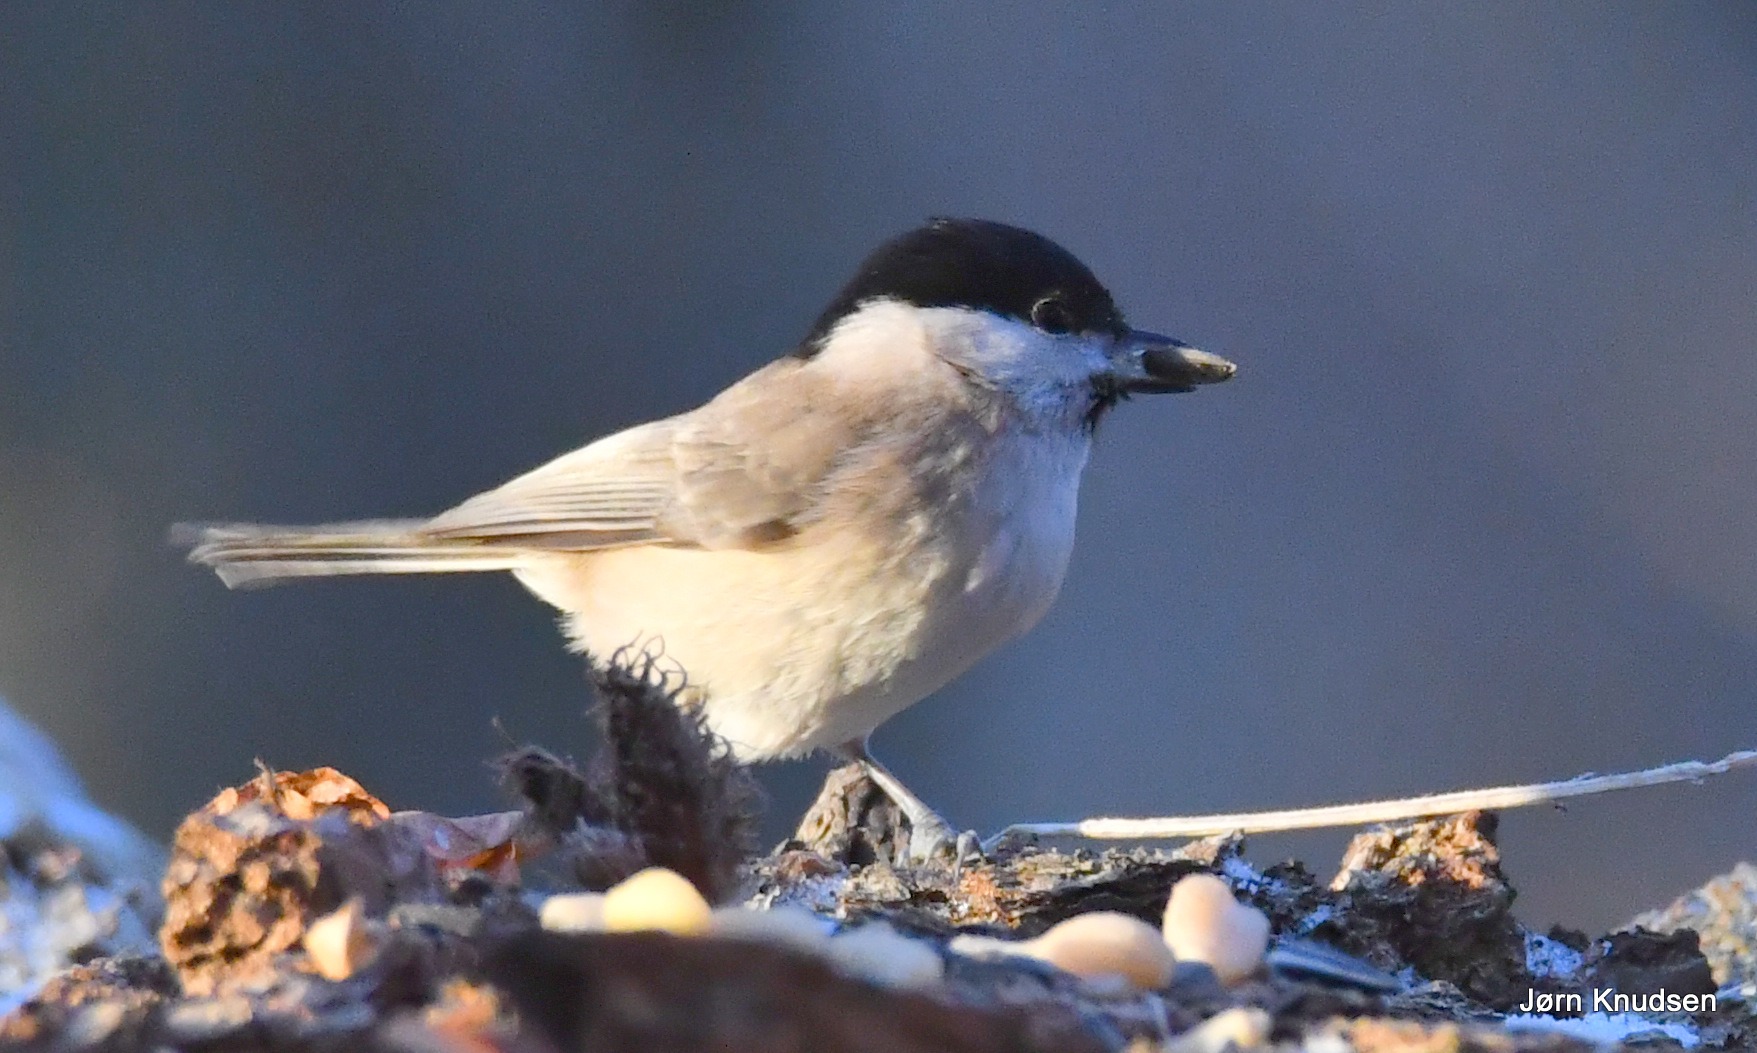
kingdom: Animalia
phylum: Chordata
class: Aves
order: Passeriformes
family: Paridae
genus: Poecile
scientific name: Poecile palustris
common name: Sumpmejse
